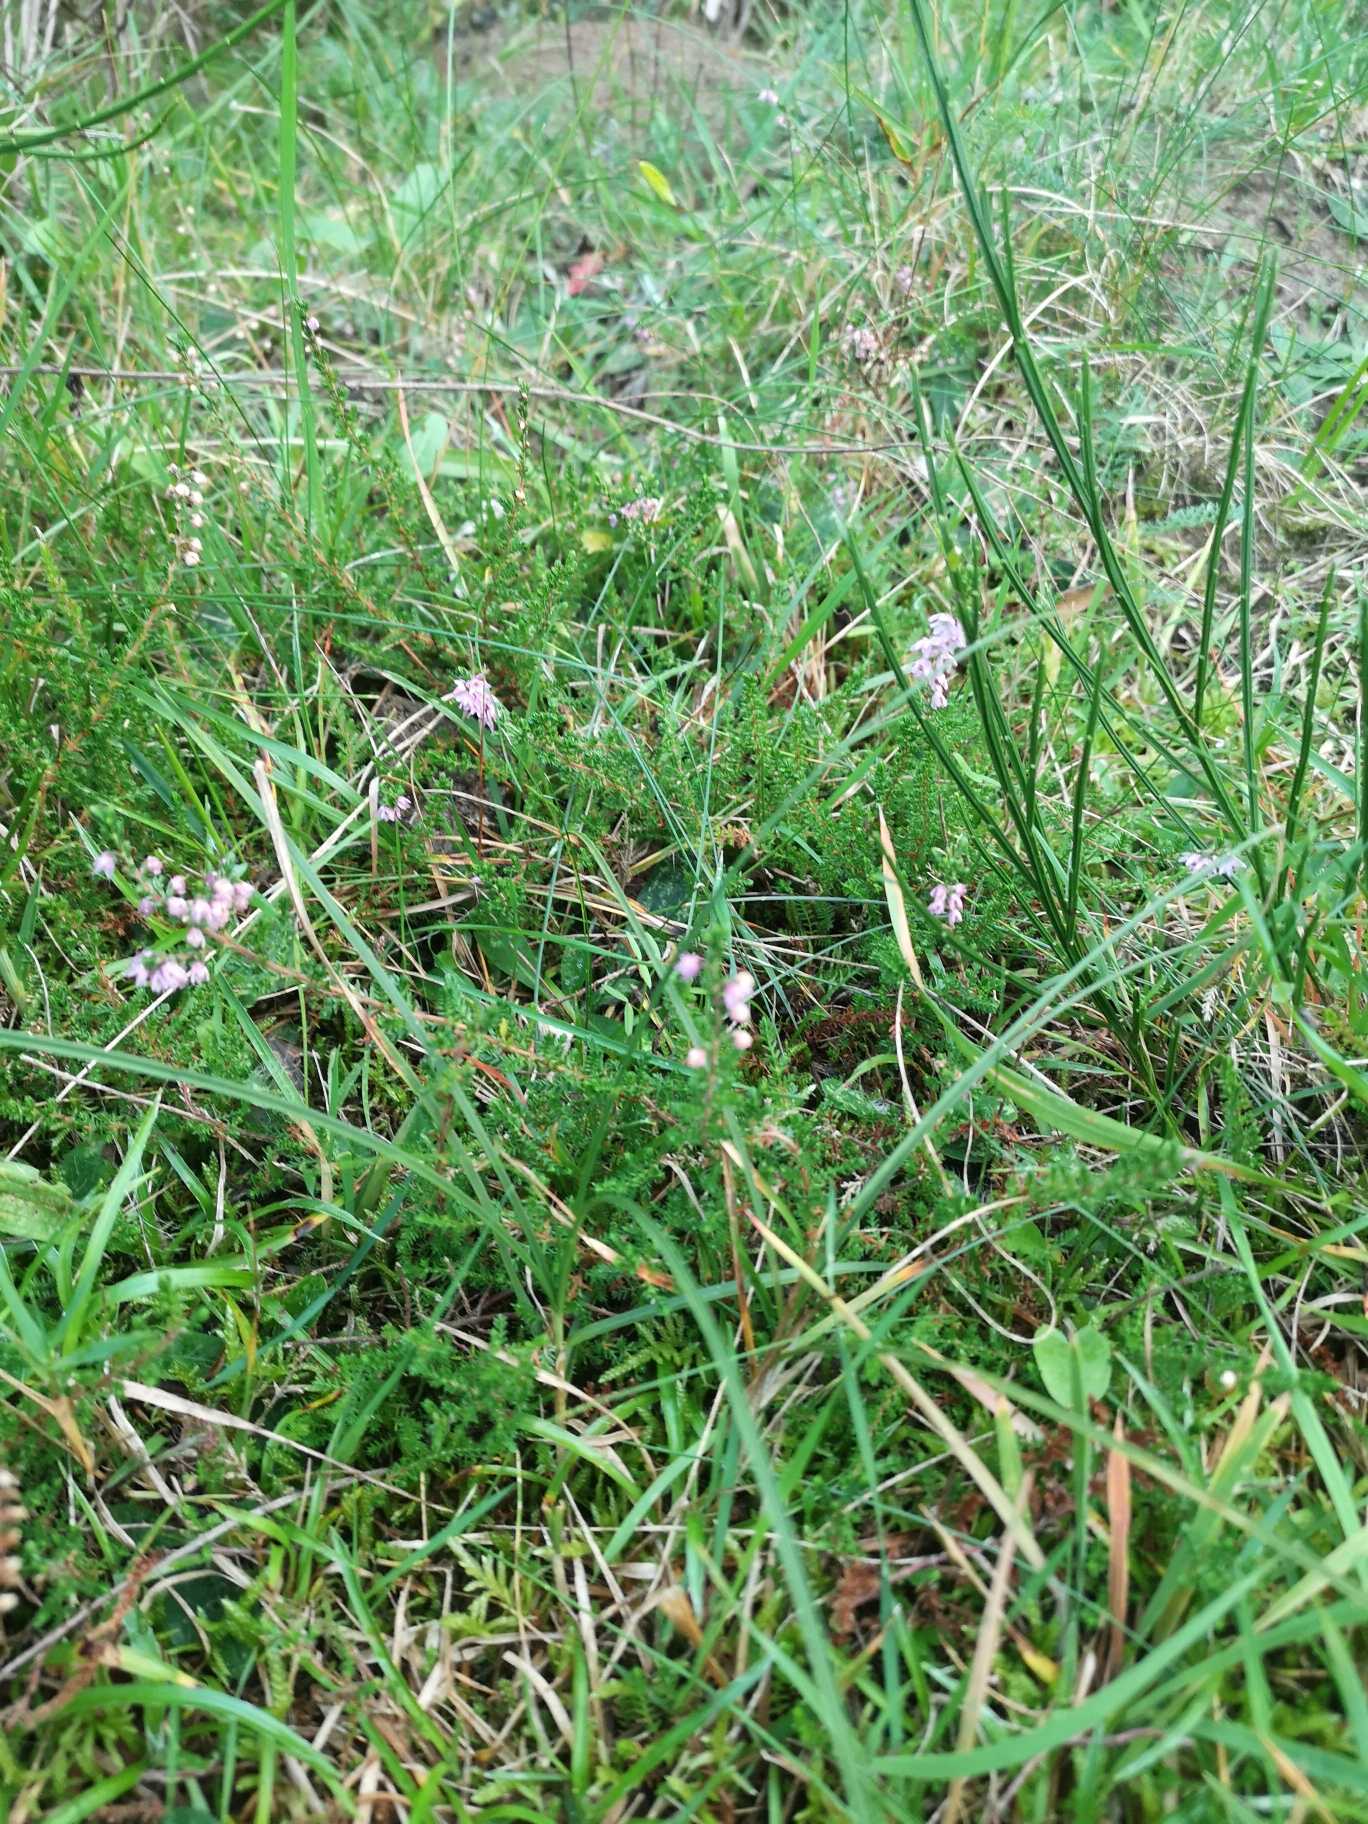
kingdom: Plantae
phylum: Tracheophyta
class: Magnoliopsida
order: Ericales
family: Ericaceae
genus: Calluna
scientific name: Calluna vulgaris
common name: Hedelyng
